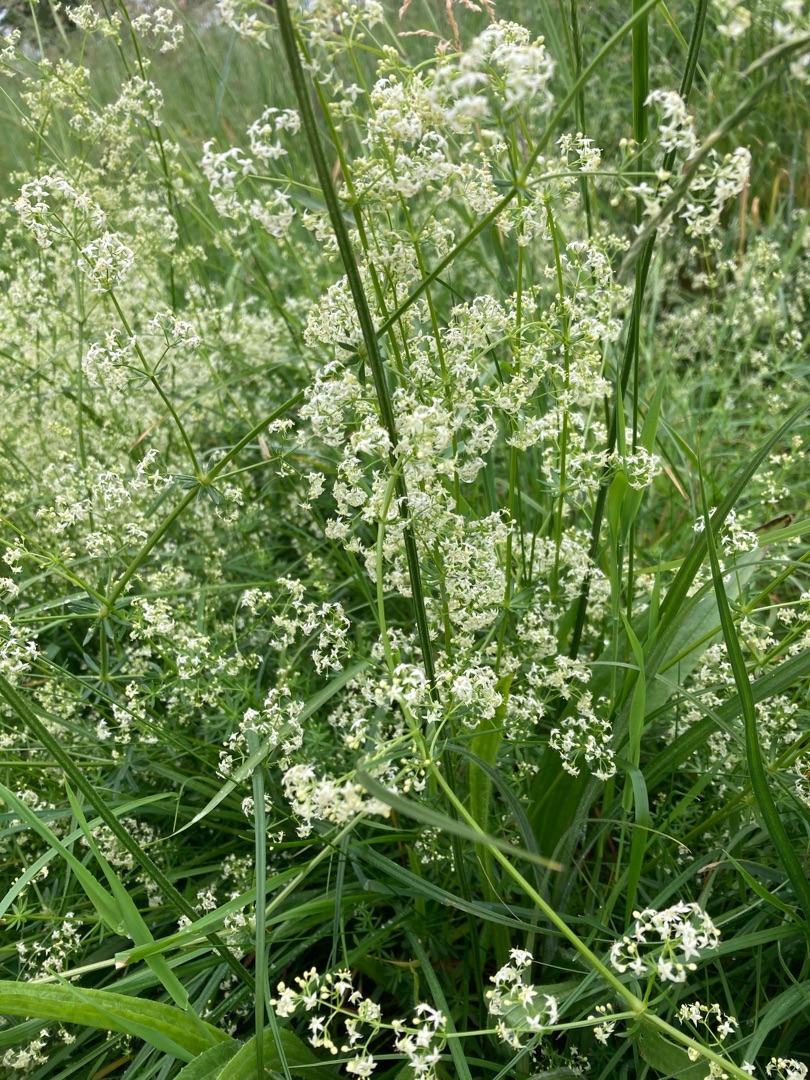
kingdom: Plantae
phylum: Tracheophyta
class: Magnoliopsida
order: Gentianales
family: Rubiaceae
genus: Galium
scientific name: Galium mollugo
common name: Hvid snerre
